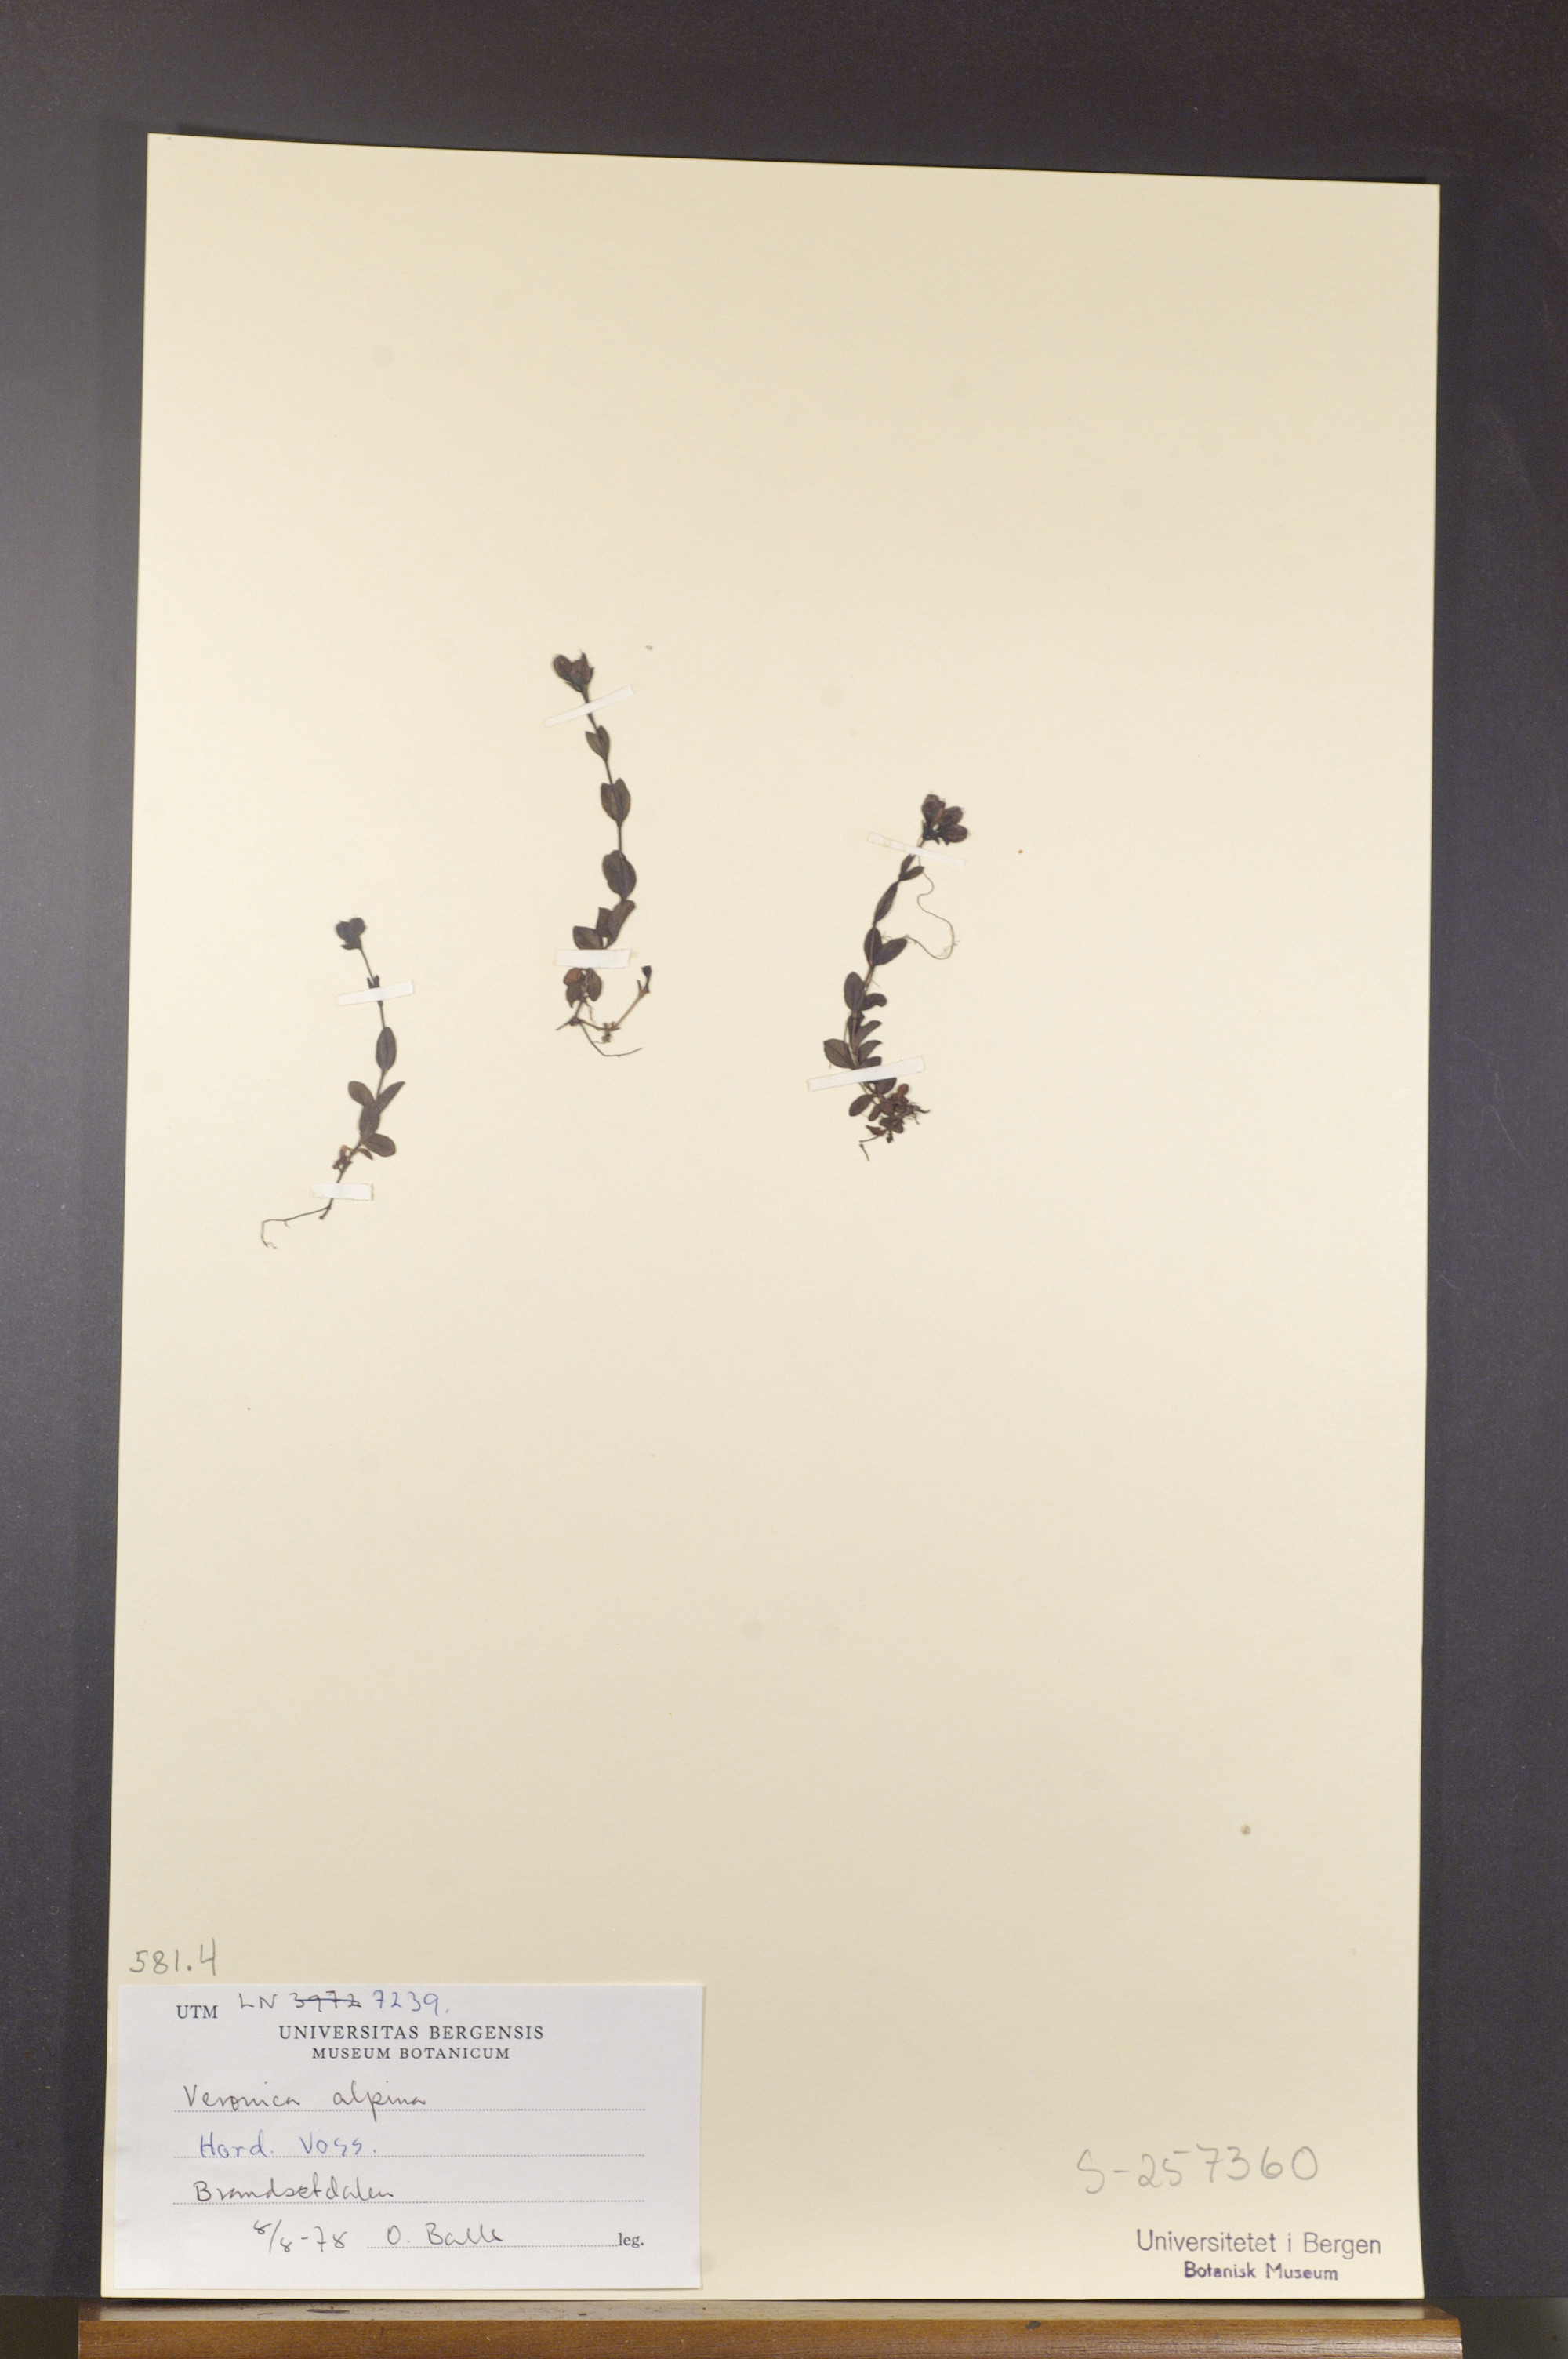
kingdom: Plantae
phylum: Tracheophyta
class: Magnoliopsida
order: Lamiales
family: Plantaginaceae
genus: Veronica
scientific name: Veronica alpina
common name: Alpine speedwell
